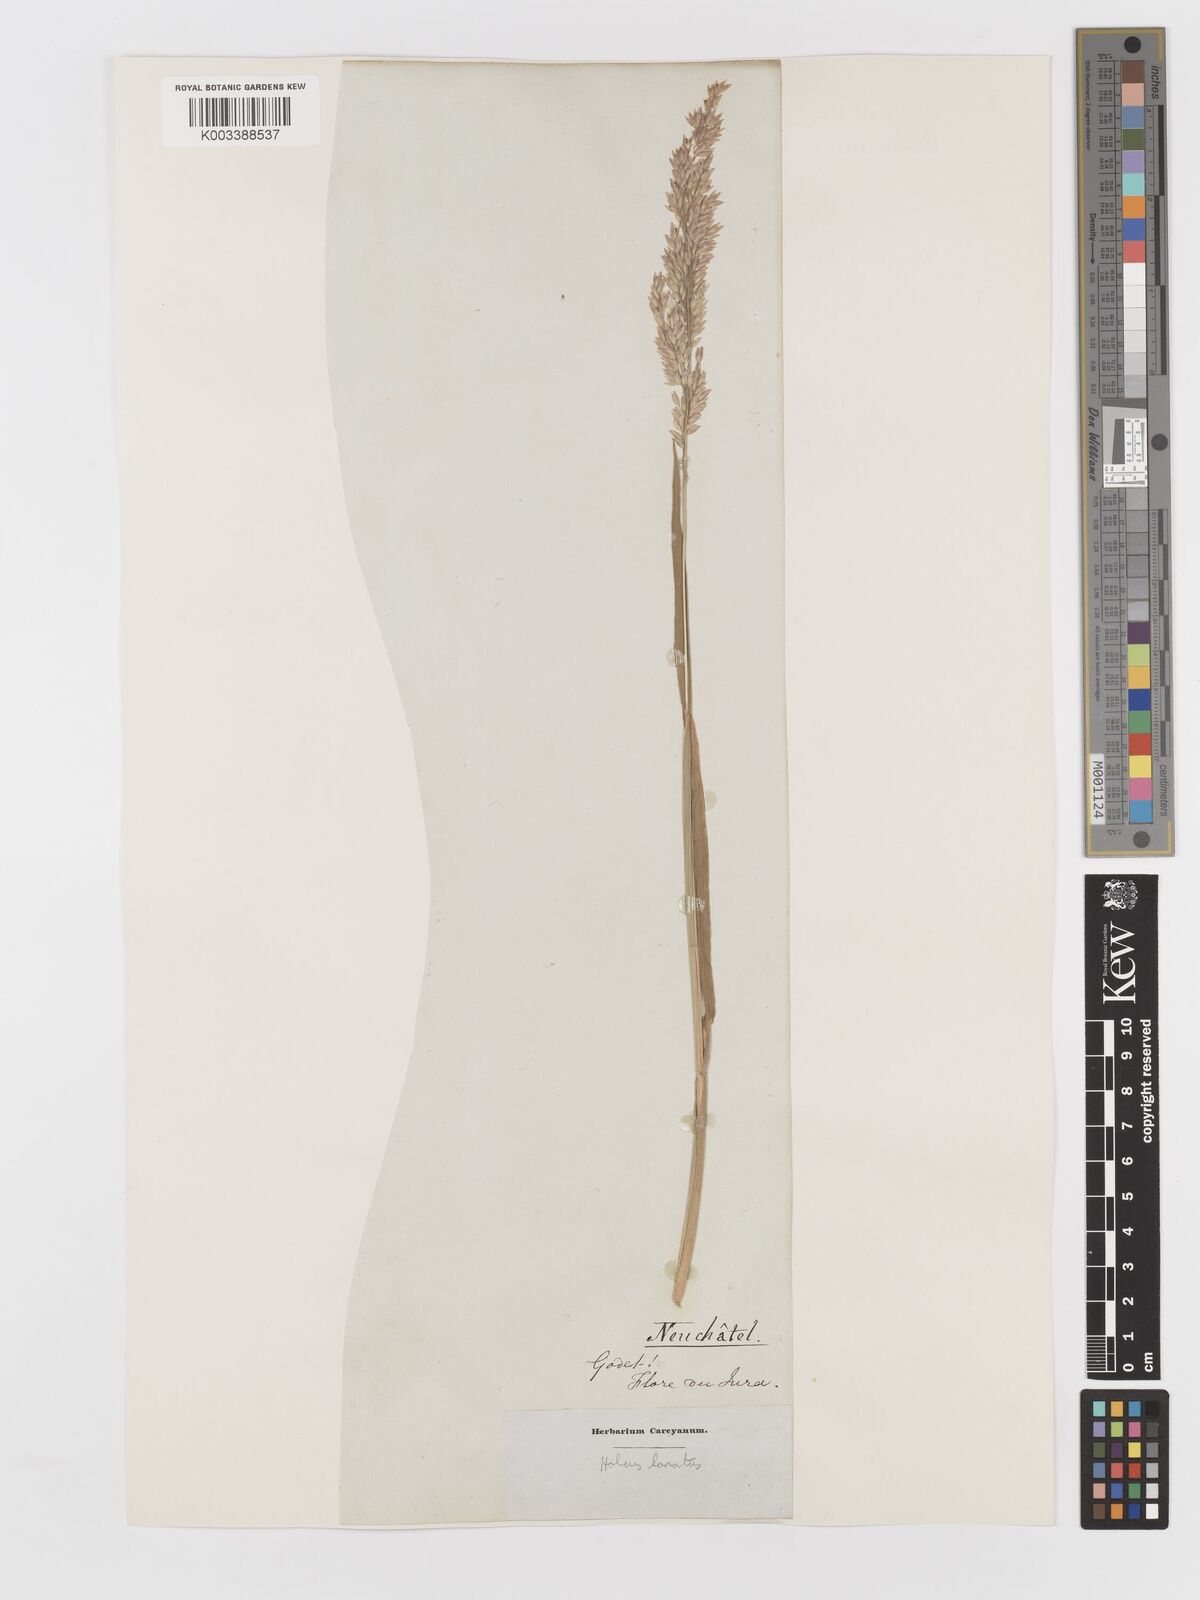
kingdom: Plantae
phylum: Tracheophyta
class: Liliopsida
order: Poales
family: Poaceae
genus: Holcus
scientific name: Holcus lanatus
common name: Yorkshire-fog
